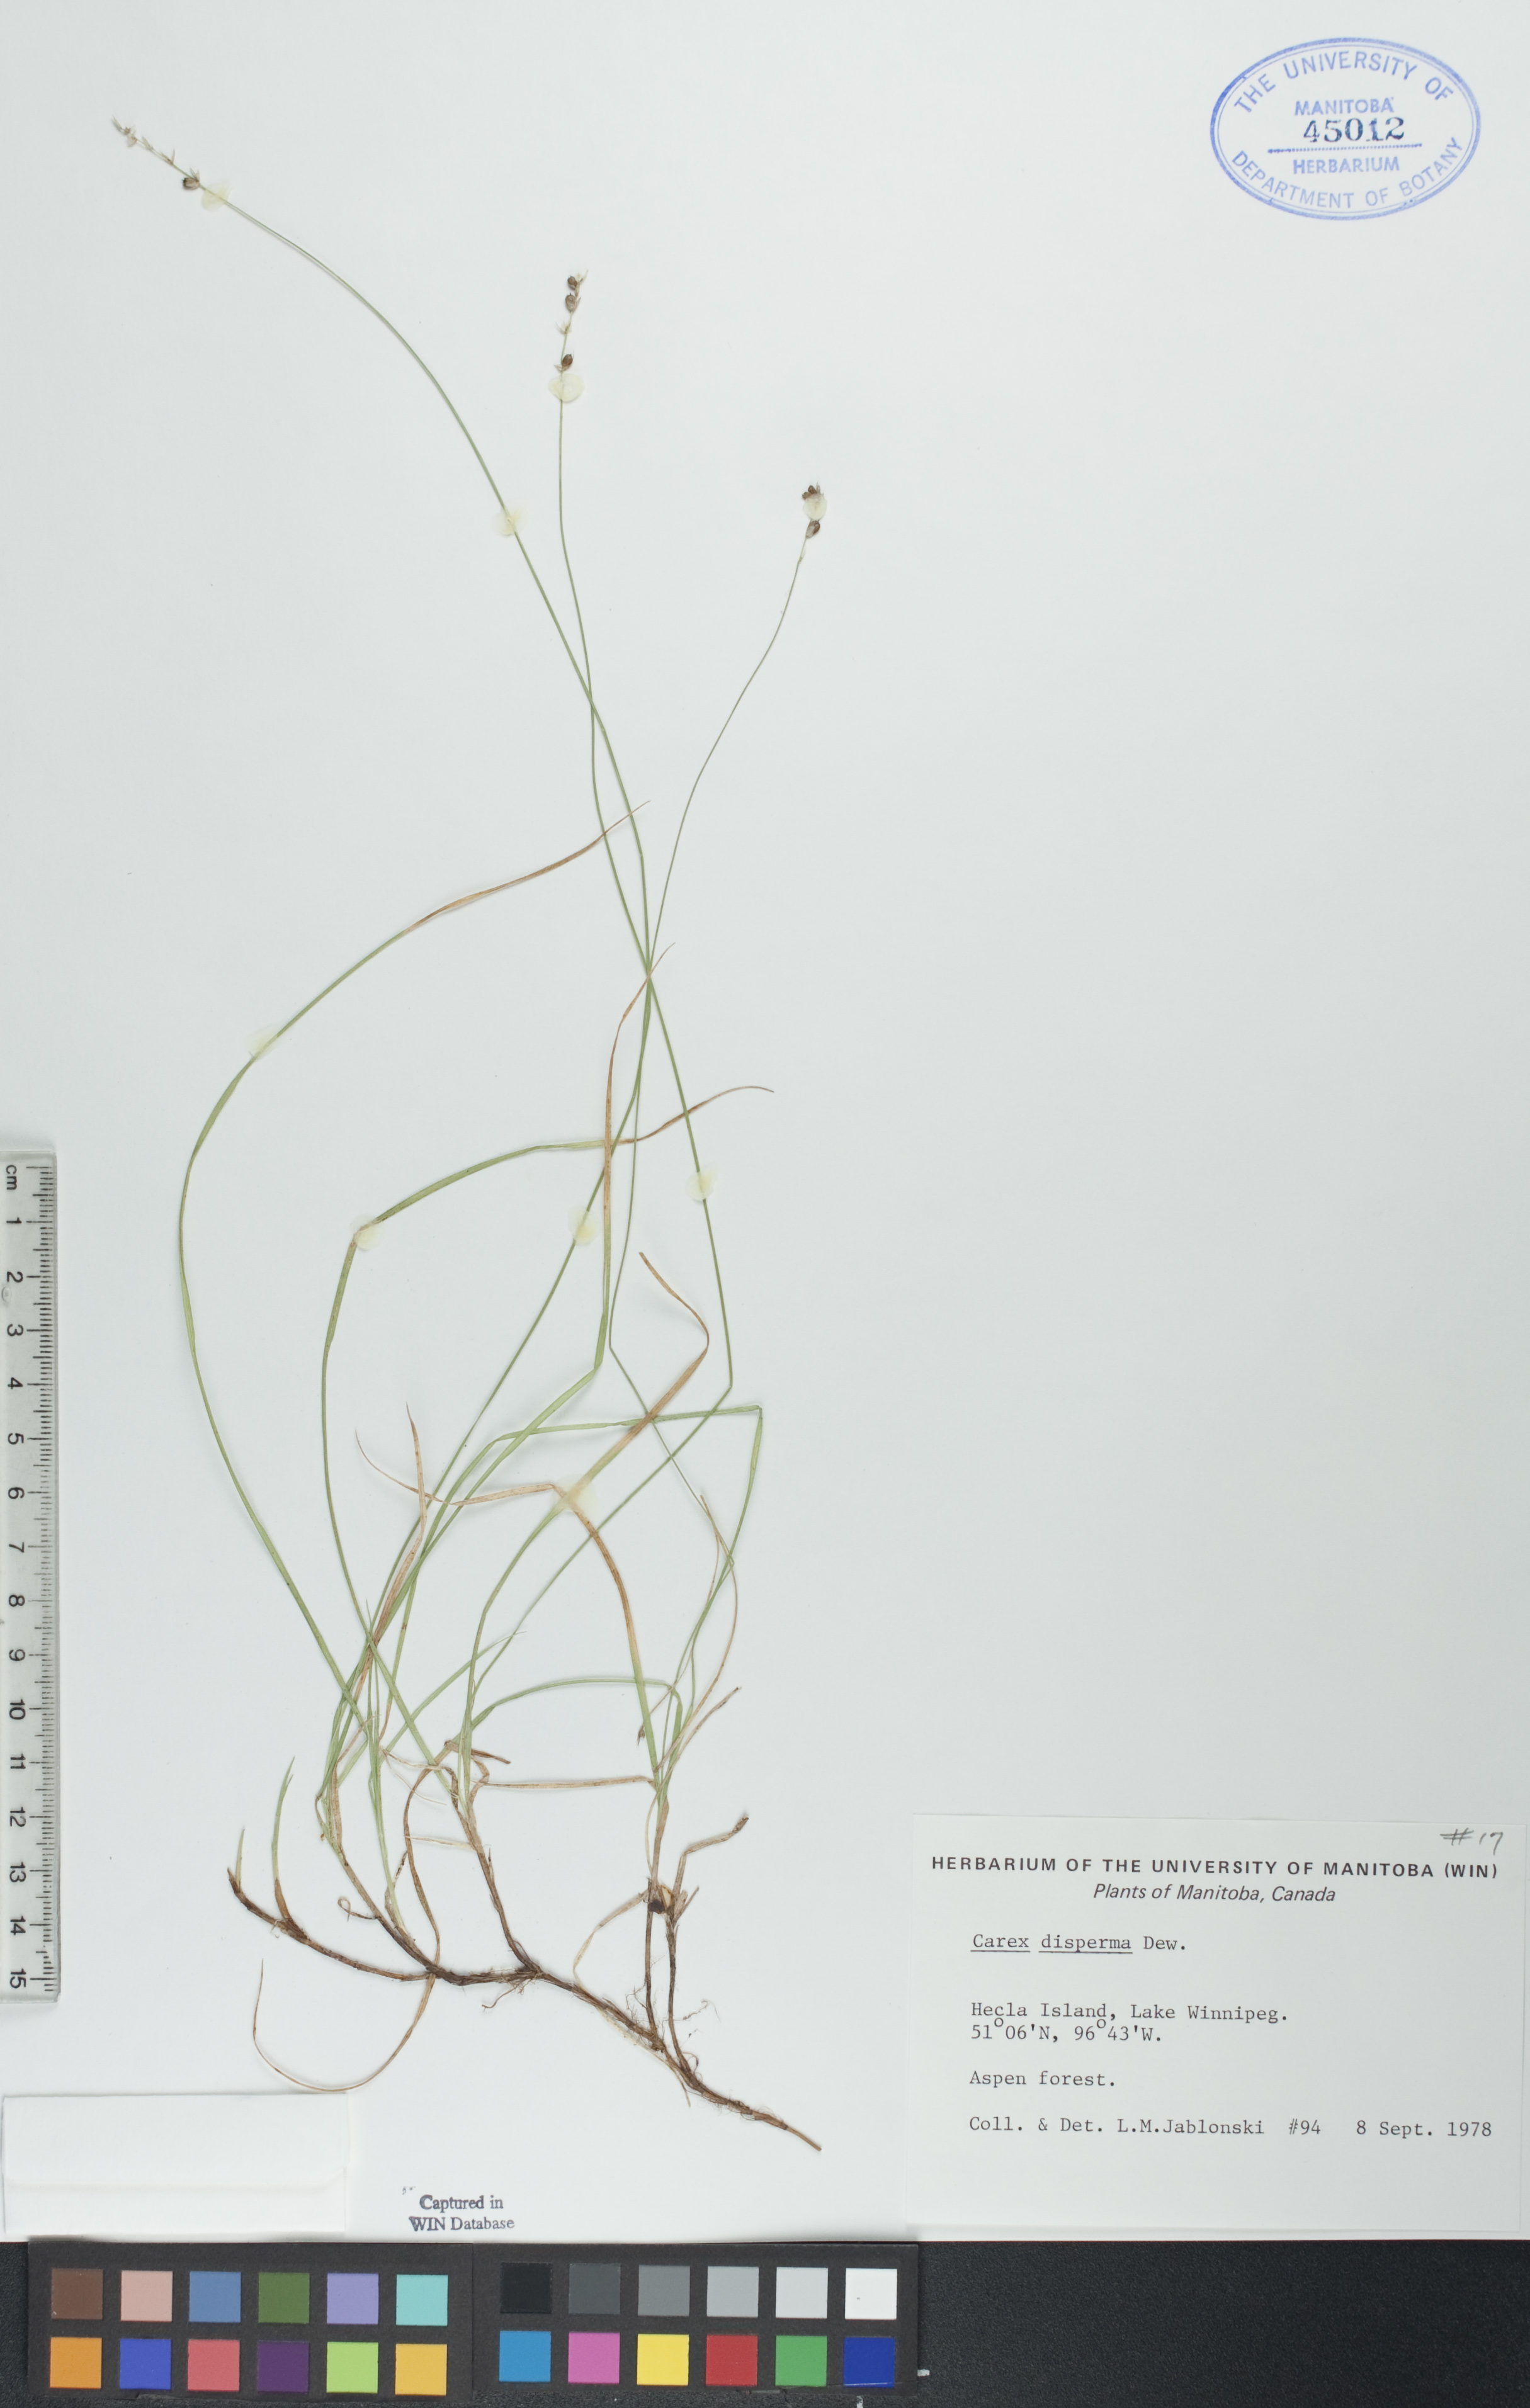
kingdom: Plantae
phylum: Tracheophyta
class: Liliopsida
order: Poales
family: Cyperaceae
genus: Carex
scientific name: Carex disperma
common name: Short-leaved sedge
